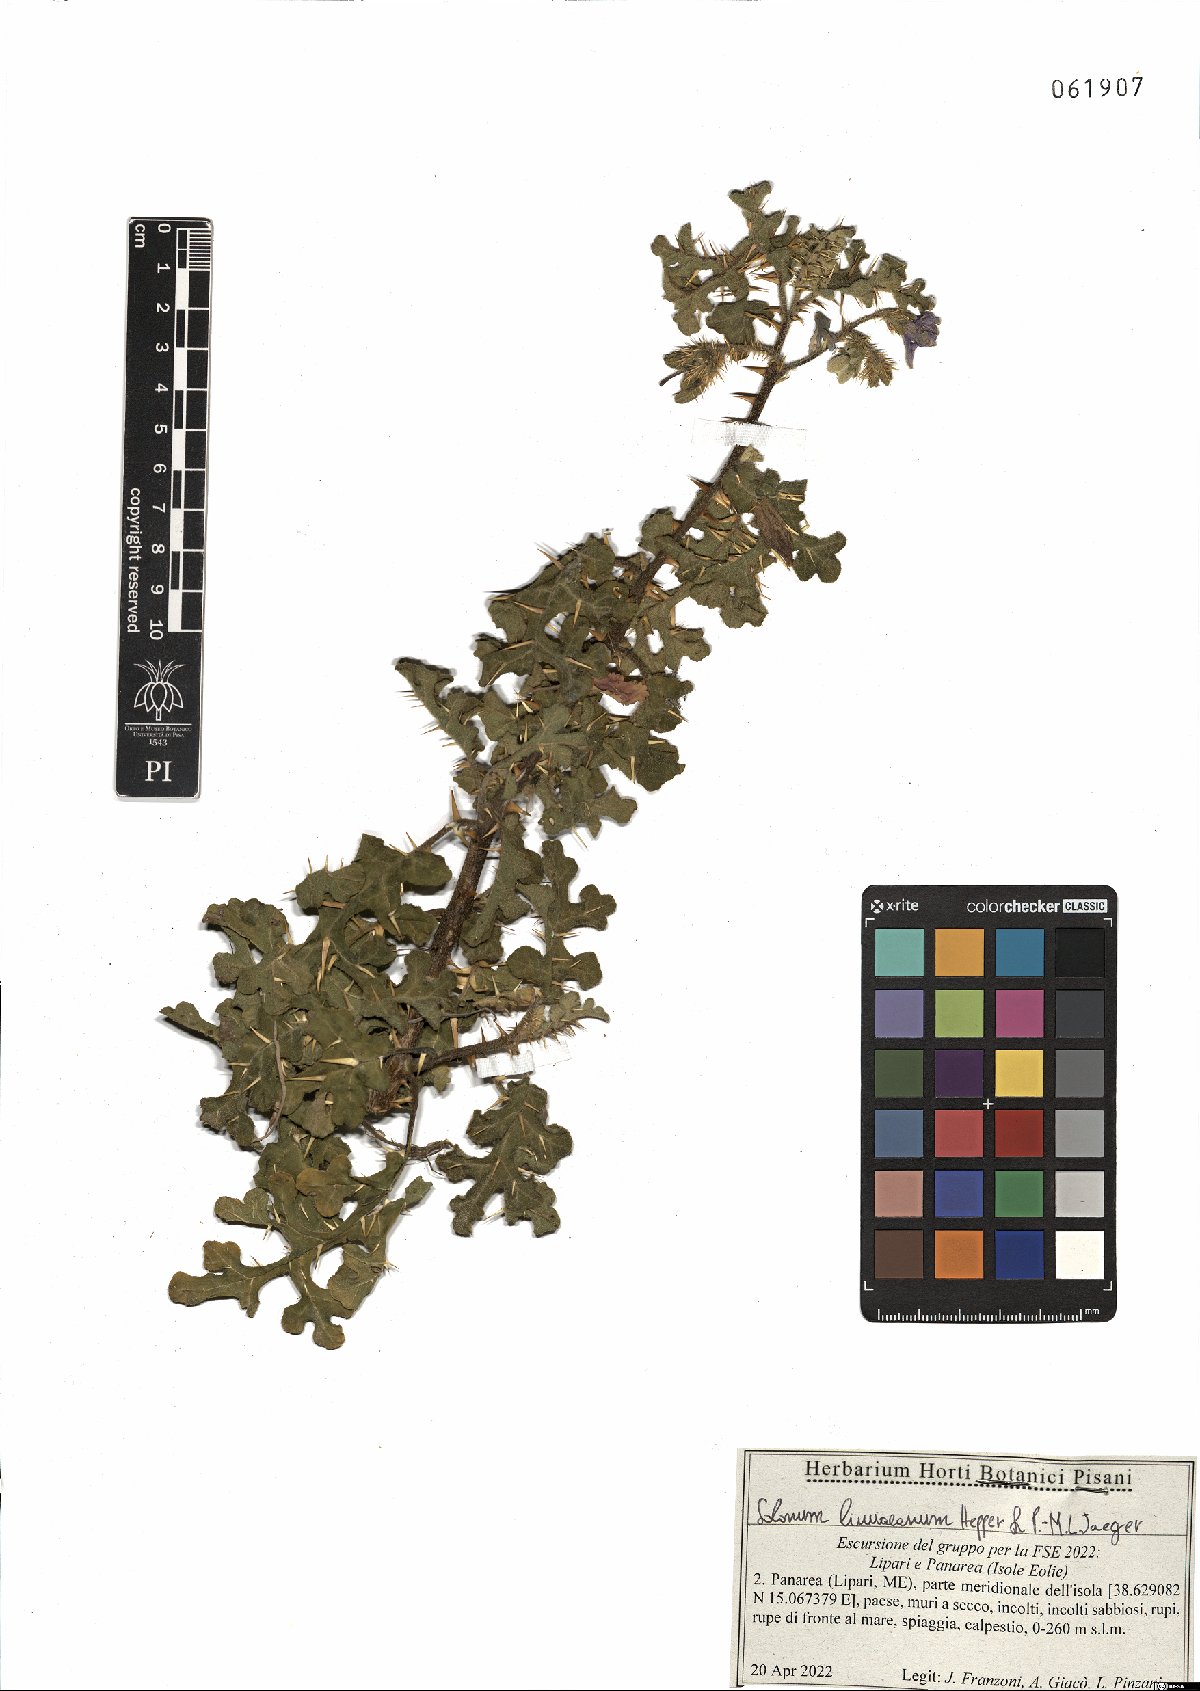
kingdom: Plantae
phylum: Tracheophyta
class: Magnoliopsida
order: Solanales
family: Solanaceae
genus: Solanum
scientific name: Solanum linnaeanum
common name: Nightshade
